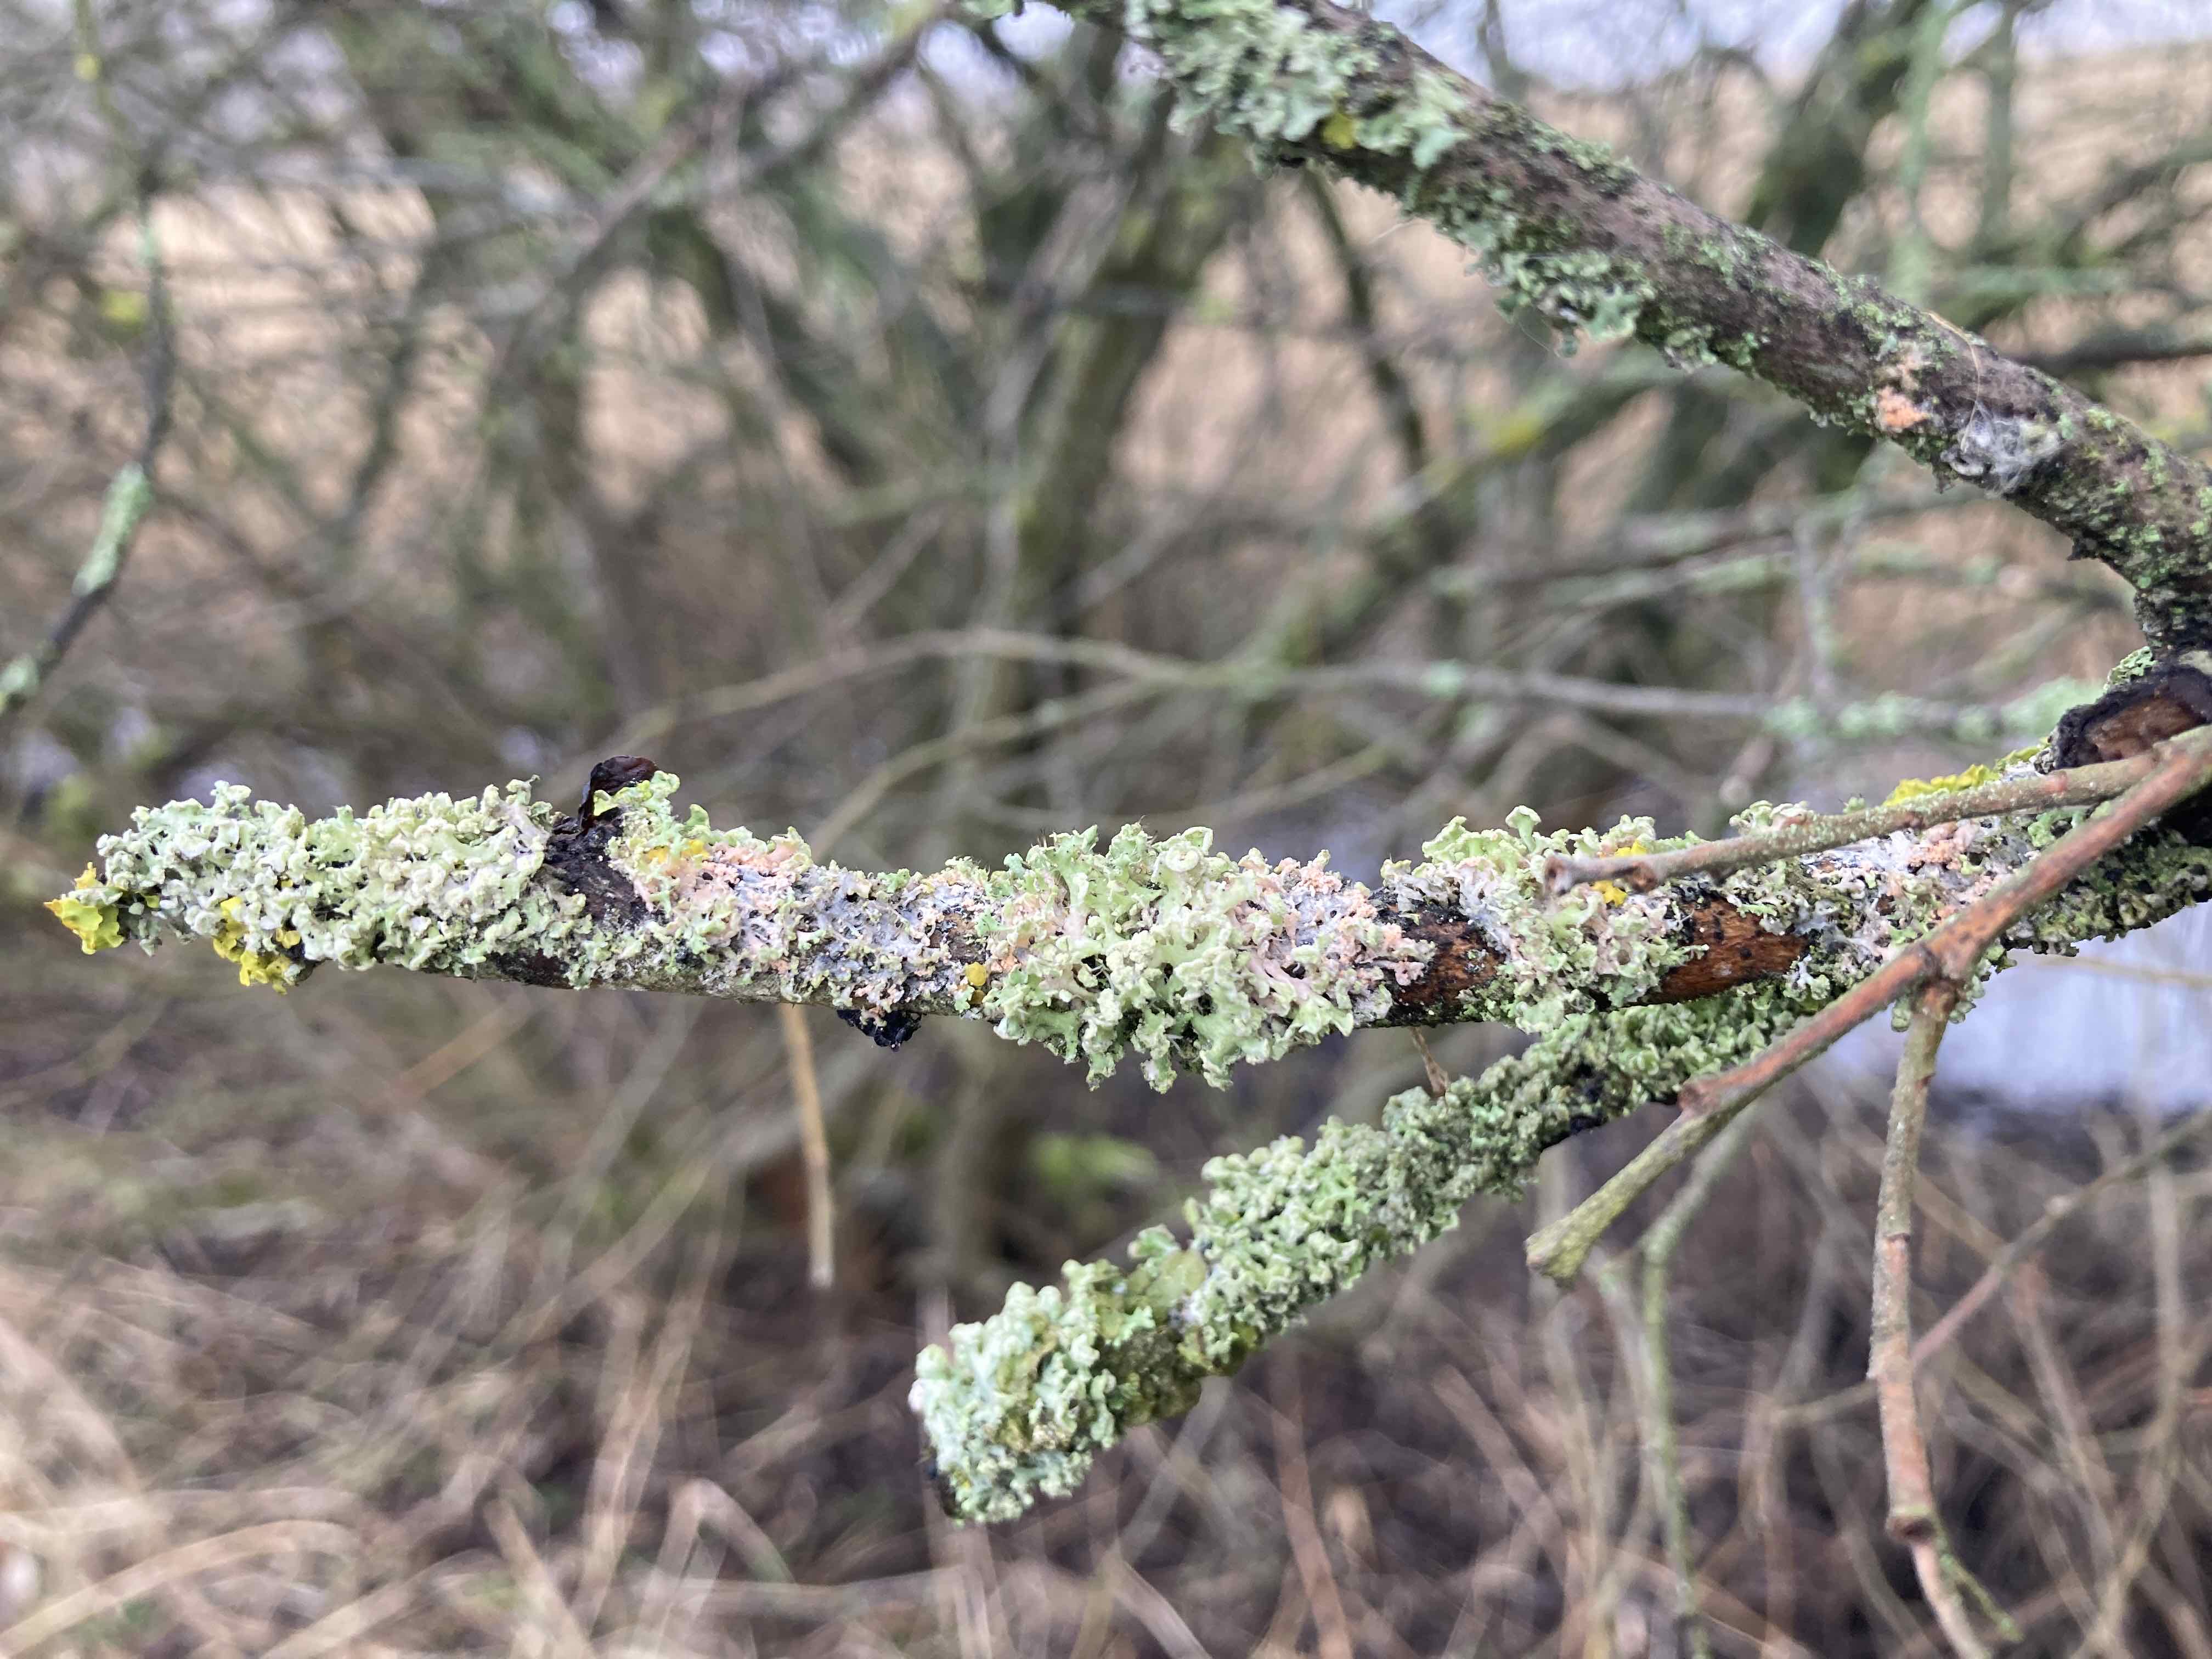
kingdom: Fungi
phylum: Basidiomycota
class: Agaricomycetes
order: Corticiales
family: Corticiaceae
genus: Erythricium
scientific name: Erythricium aurantiacum
